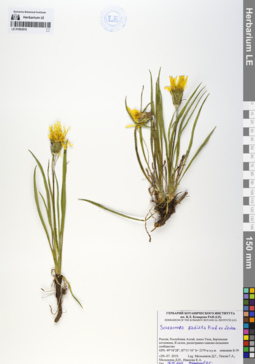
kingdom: Plantae
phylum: Tracheophyta
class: Magnoliopsida
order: Asterales
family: Asteraceae
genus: Scorzonera
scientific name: Scorzonera radiata
